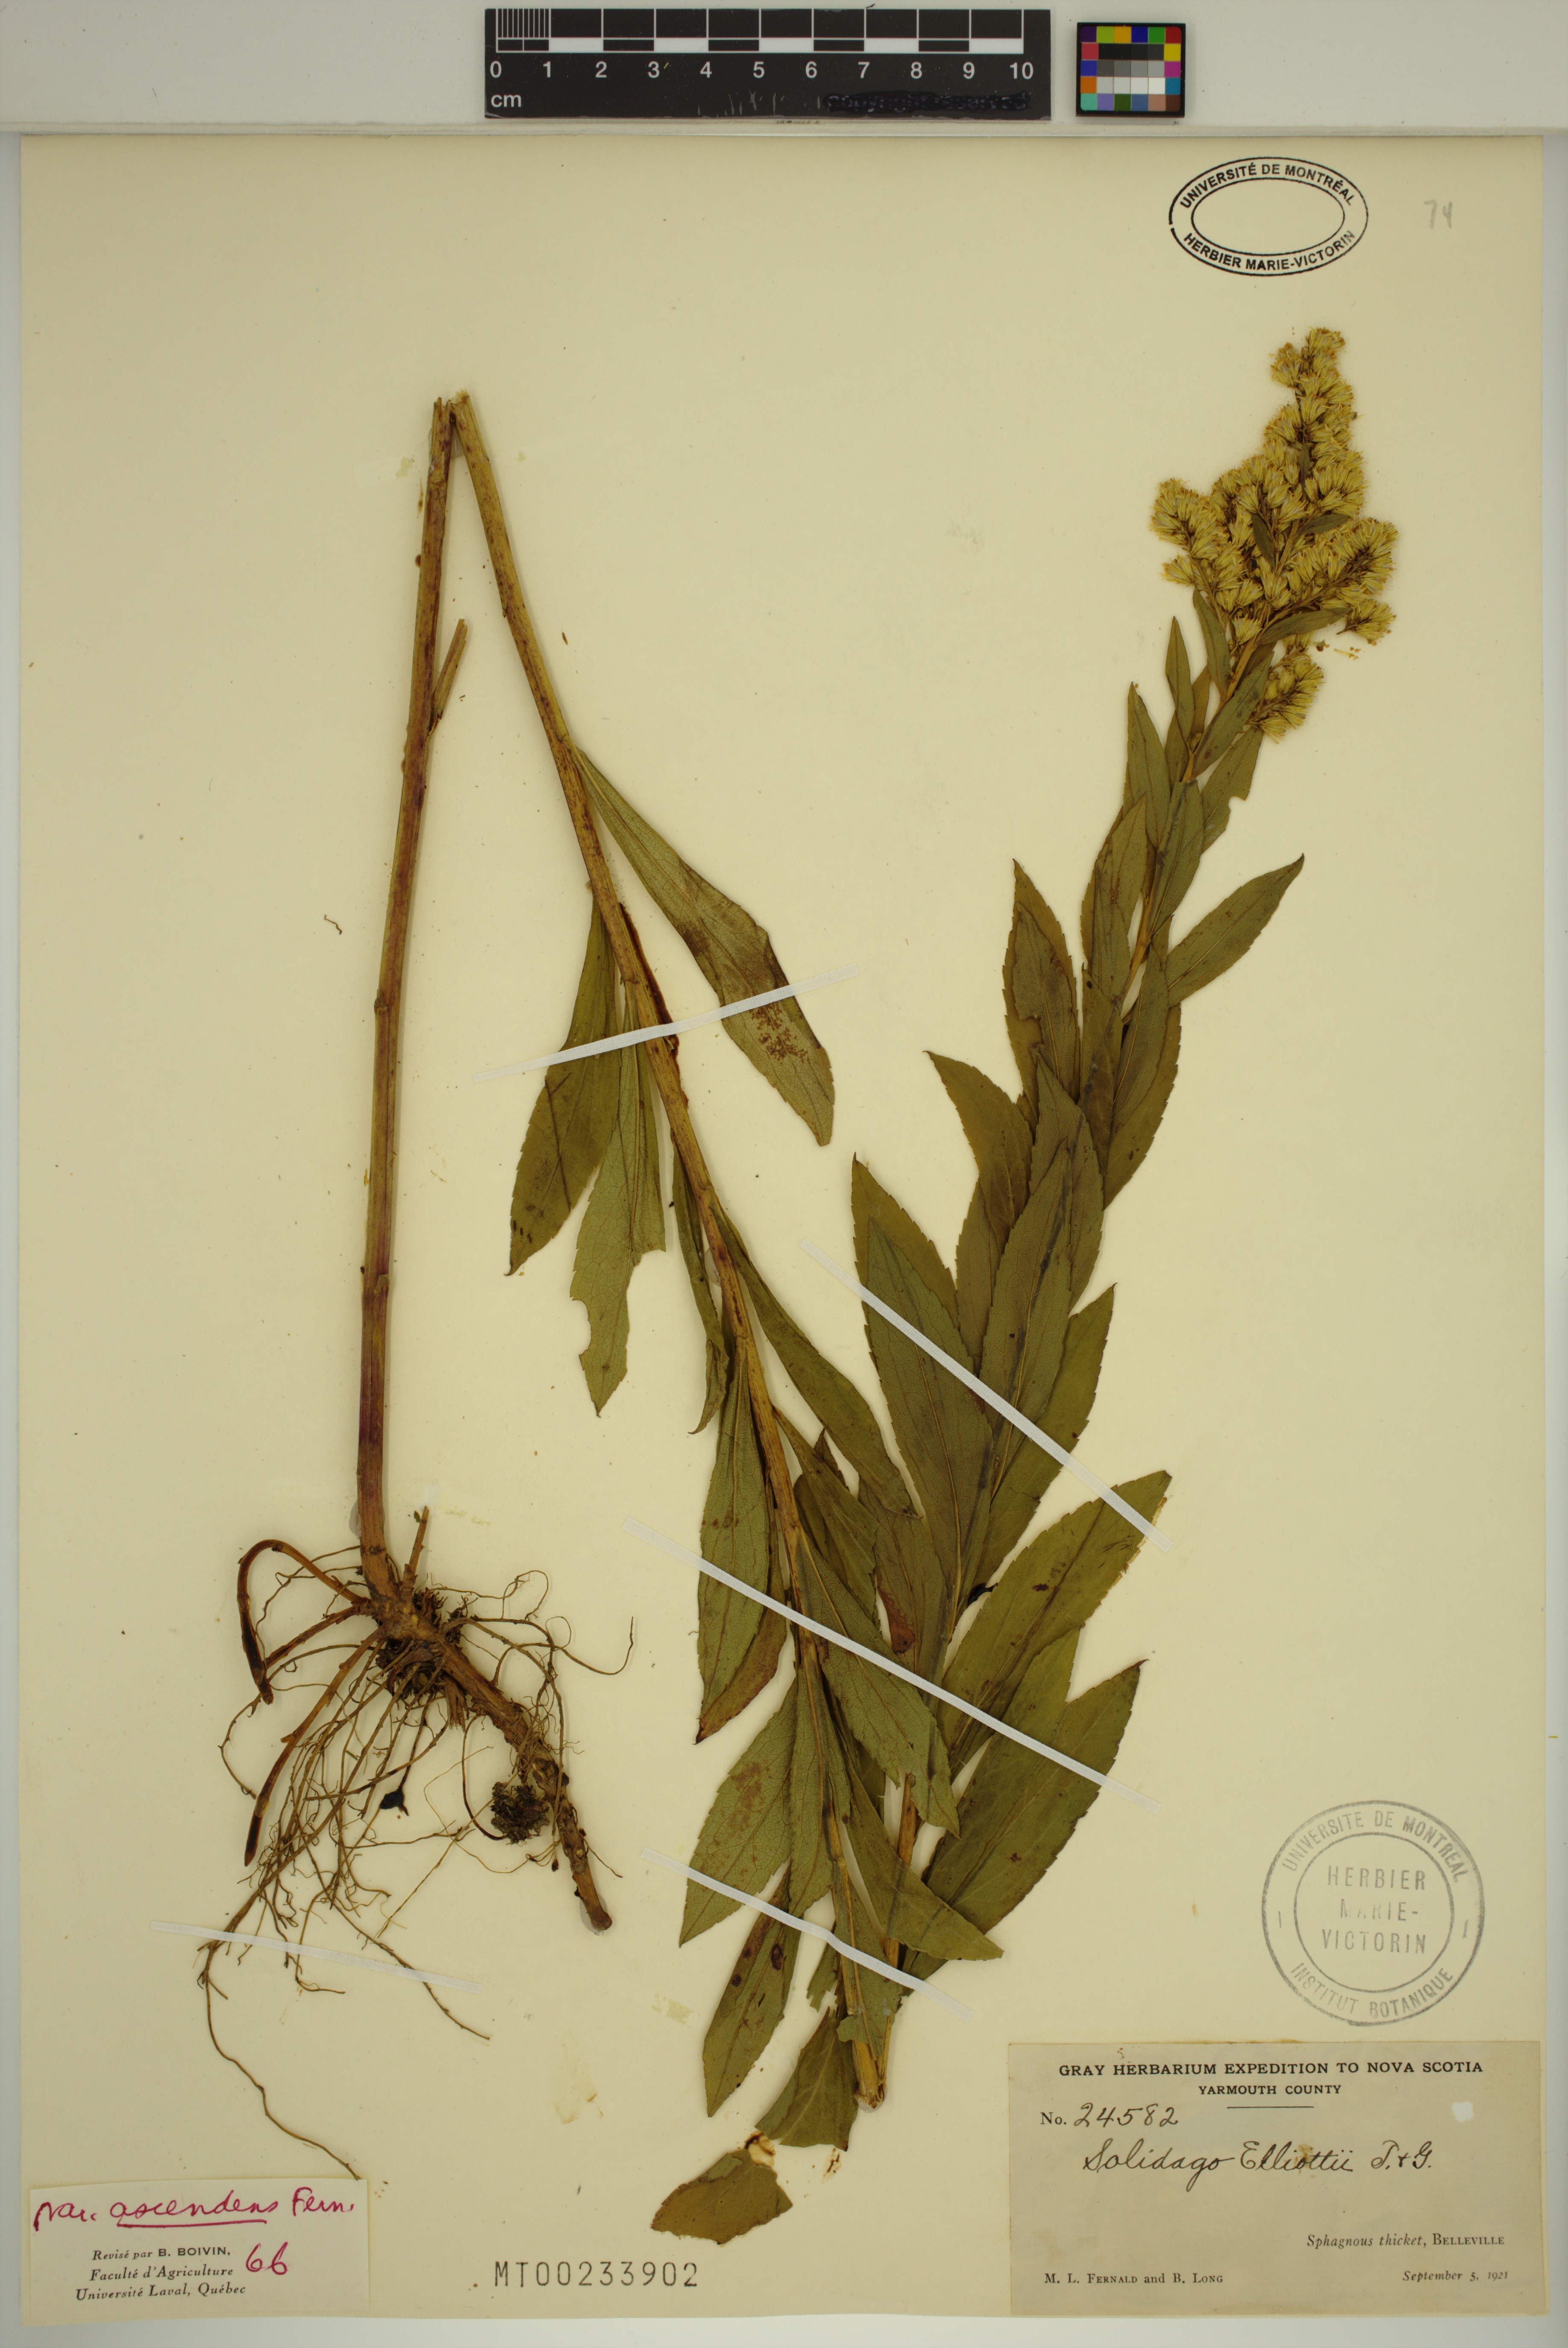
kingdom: Plantae
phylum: Tracheophyta
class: Magnoliopsida
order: Asterales
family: Asteraceae
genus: Solidago
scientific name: Solidago latissimifolia
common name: Elliott's goldenrod
